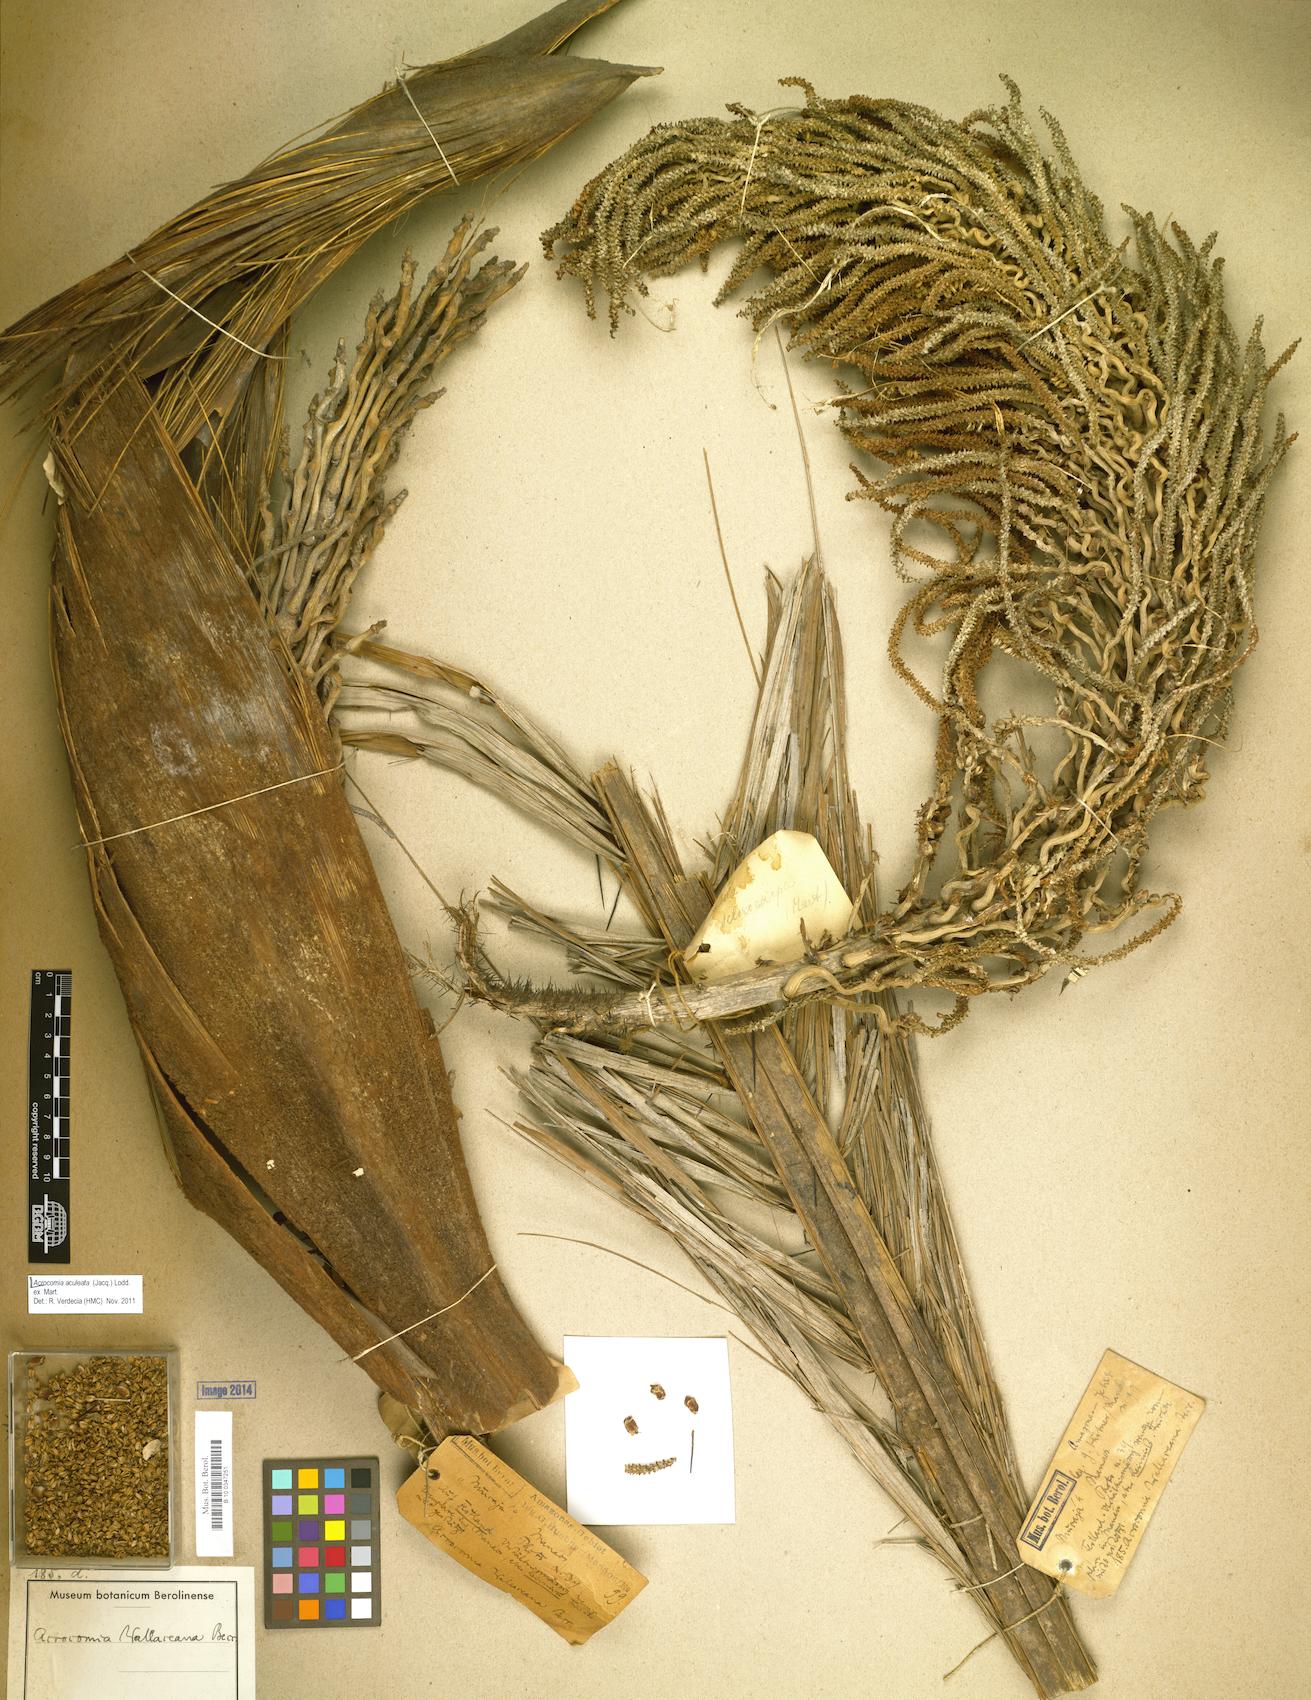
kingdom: Plantae
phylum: Tracheophyta
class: Liliopsida
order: Arecales
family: Arecaceae
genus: Acrocomia
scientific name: Acrocomia aculeata
